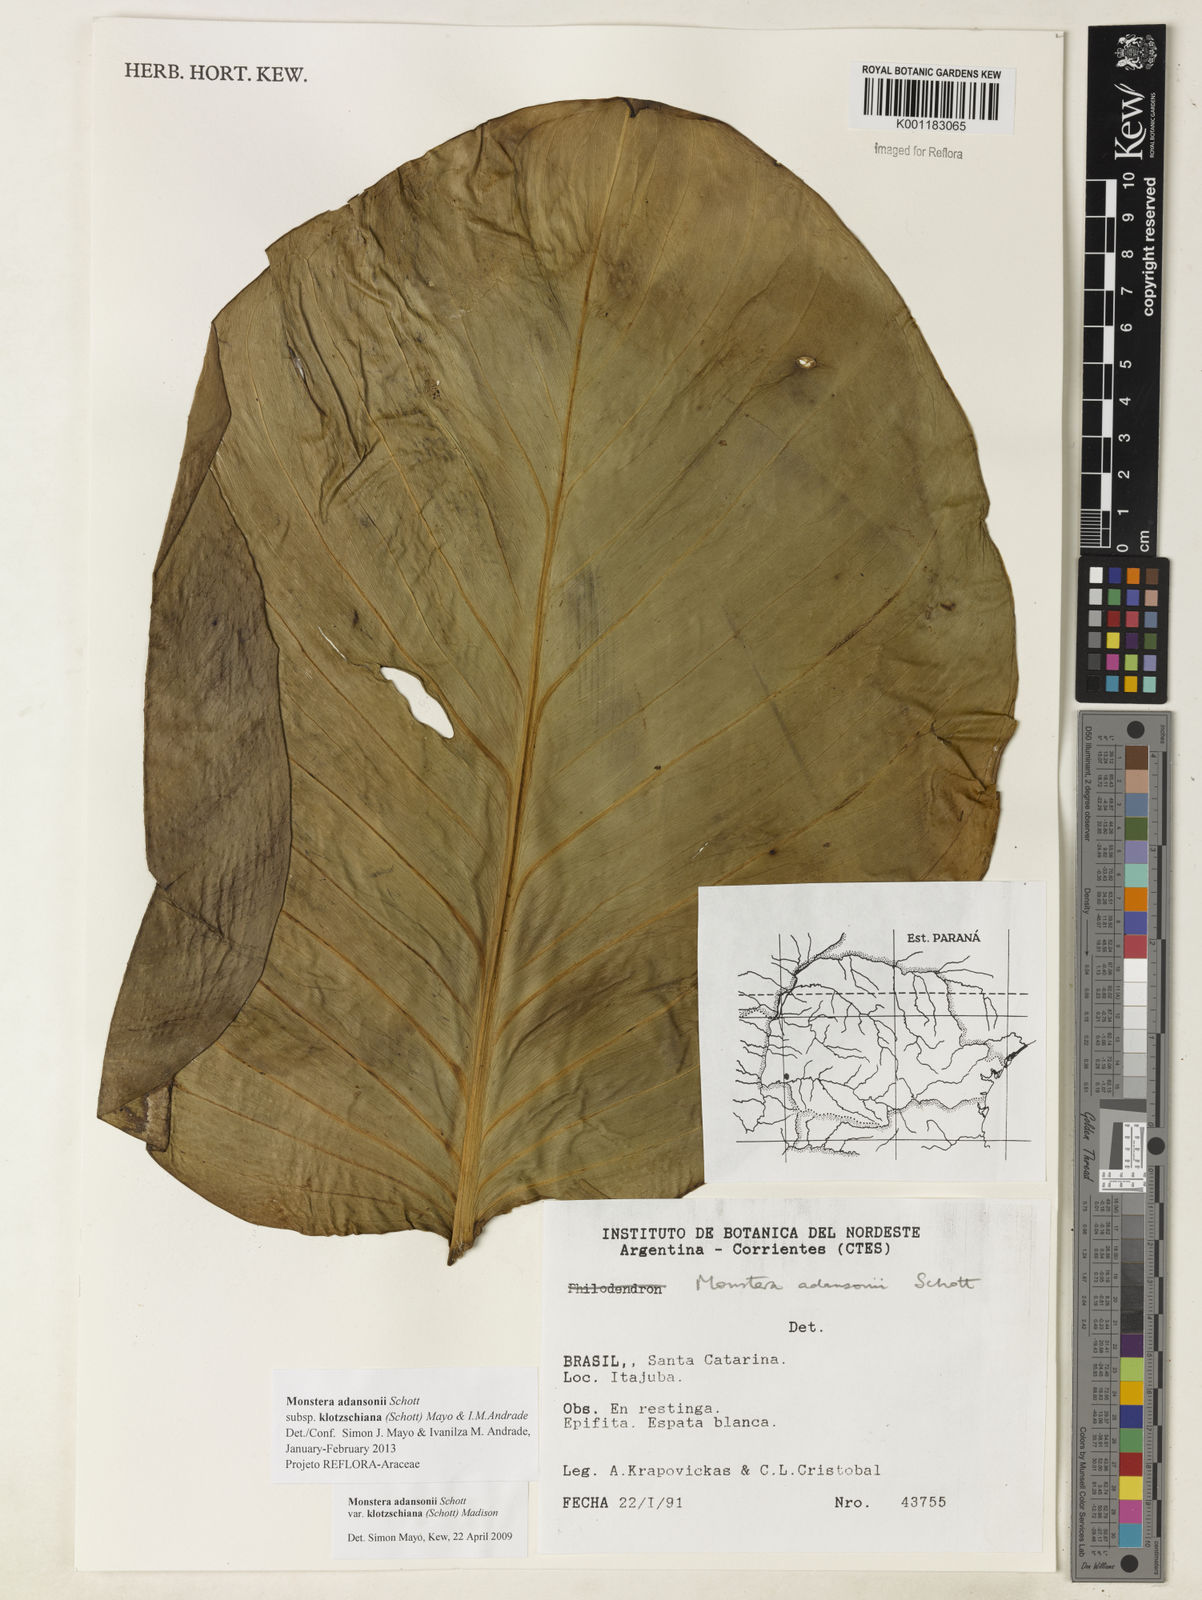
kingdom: Plantae
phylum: Tracheophyta
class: Liliopsida
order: Alismatales
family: Araceae
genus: Monstera
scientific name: Monstera adansonii
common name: Tarovine
